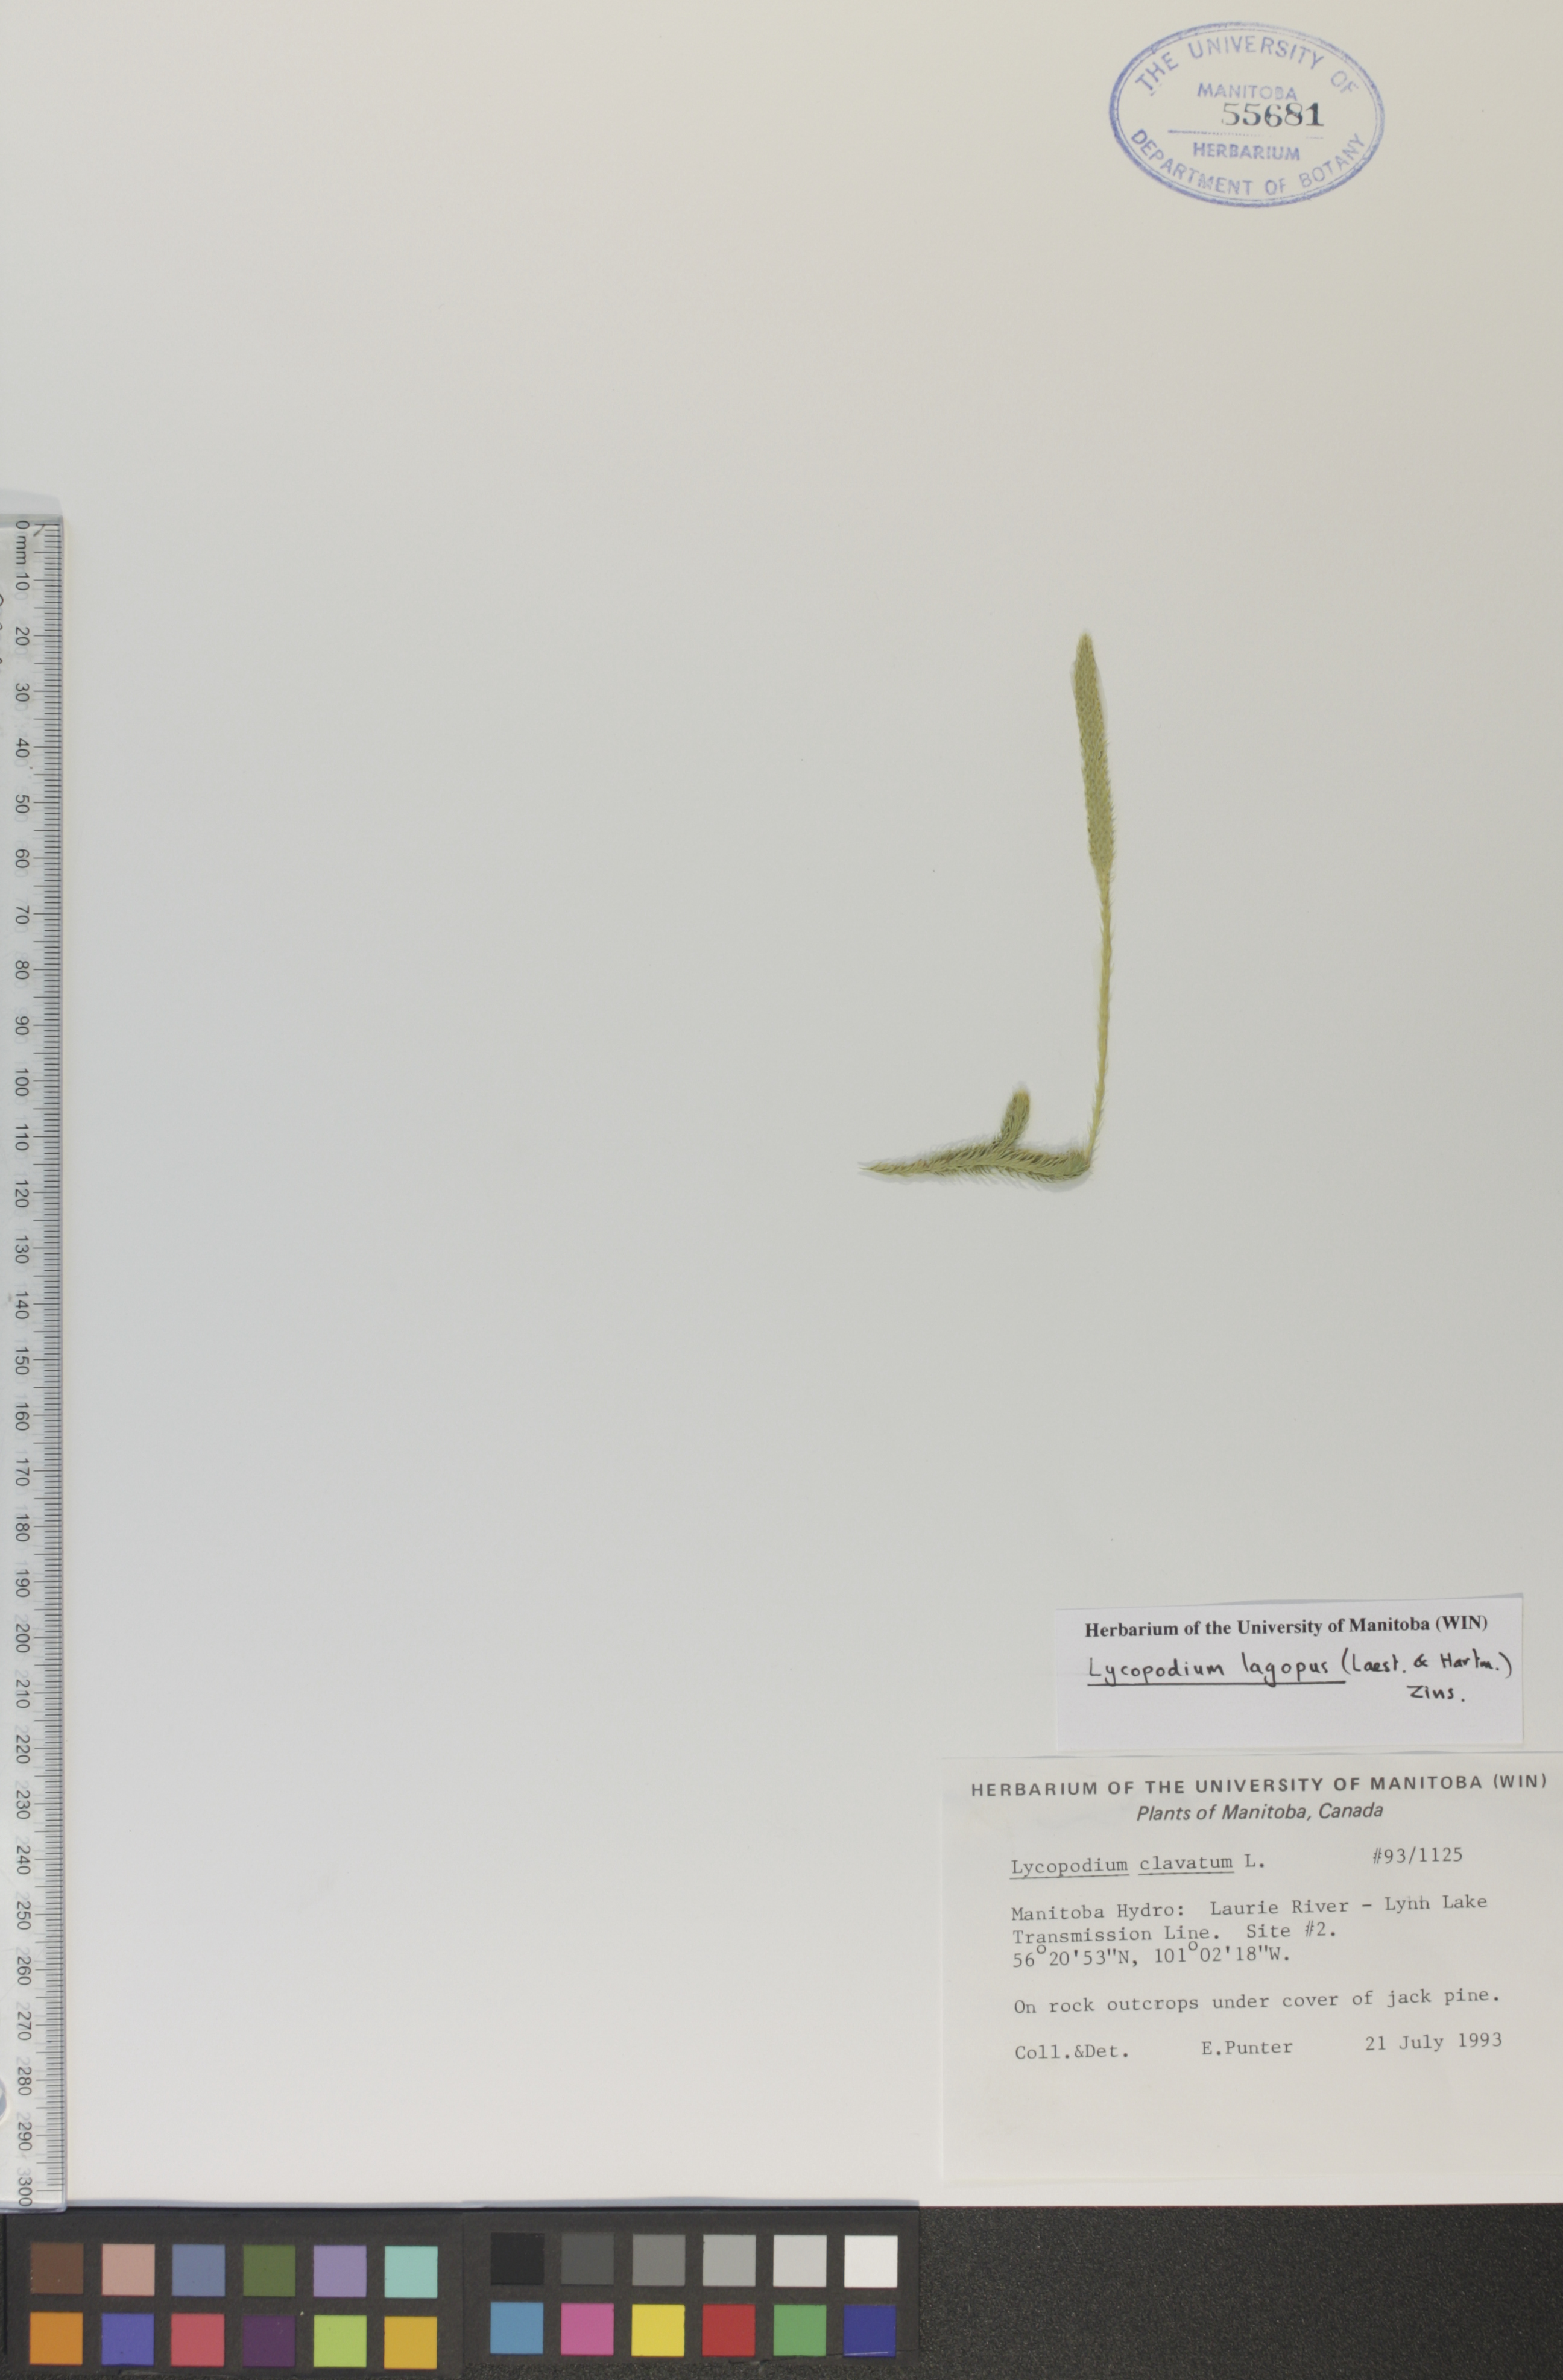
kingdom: Plantae
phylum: Tracheophyta
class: Lycopodiopsida
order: Lycopodiales
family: Lycopodiaceae
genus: Lycopodium
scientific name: Lycopodium lagopus
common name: One-cone clubmoss
